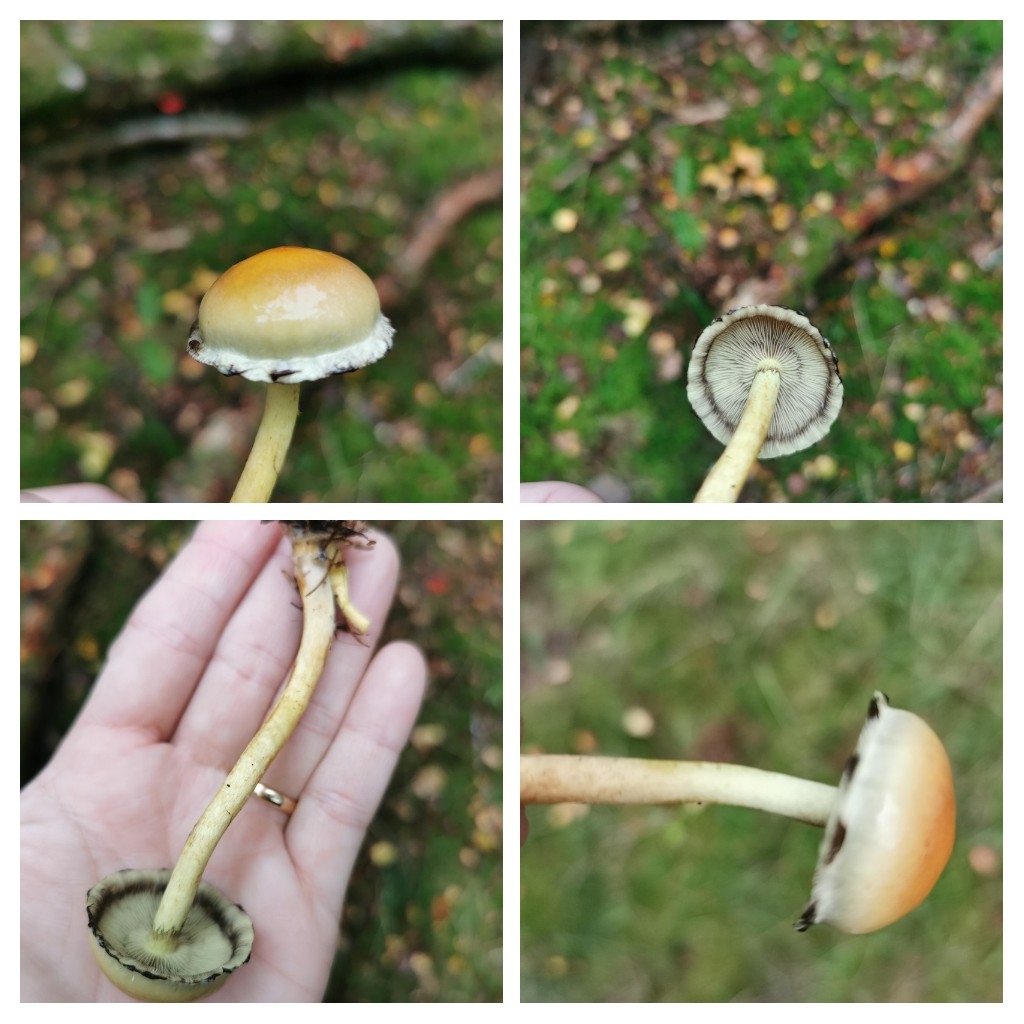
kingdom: Fungi
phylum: Basidiomycota
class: Agaricomycetes
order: Agaricales
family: Strophariaceae
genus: Hypholoma
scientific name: Hypholoma
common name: svovlhat
